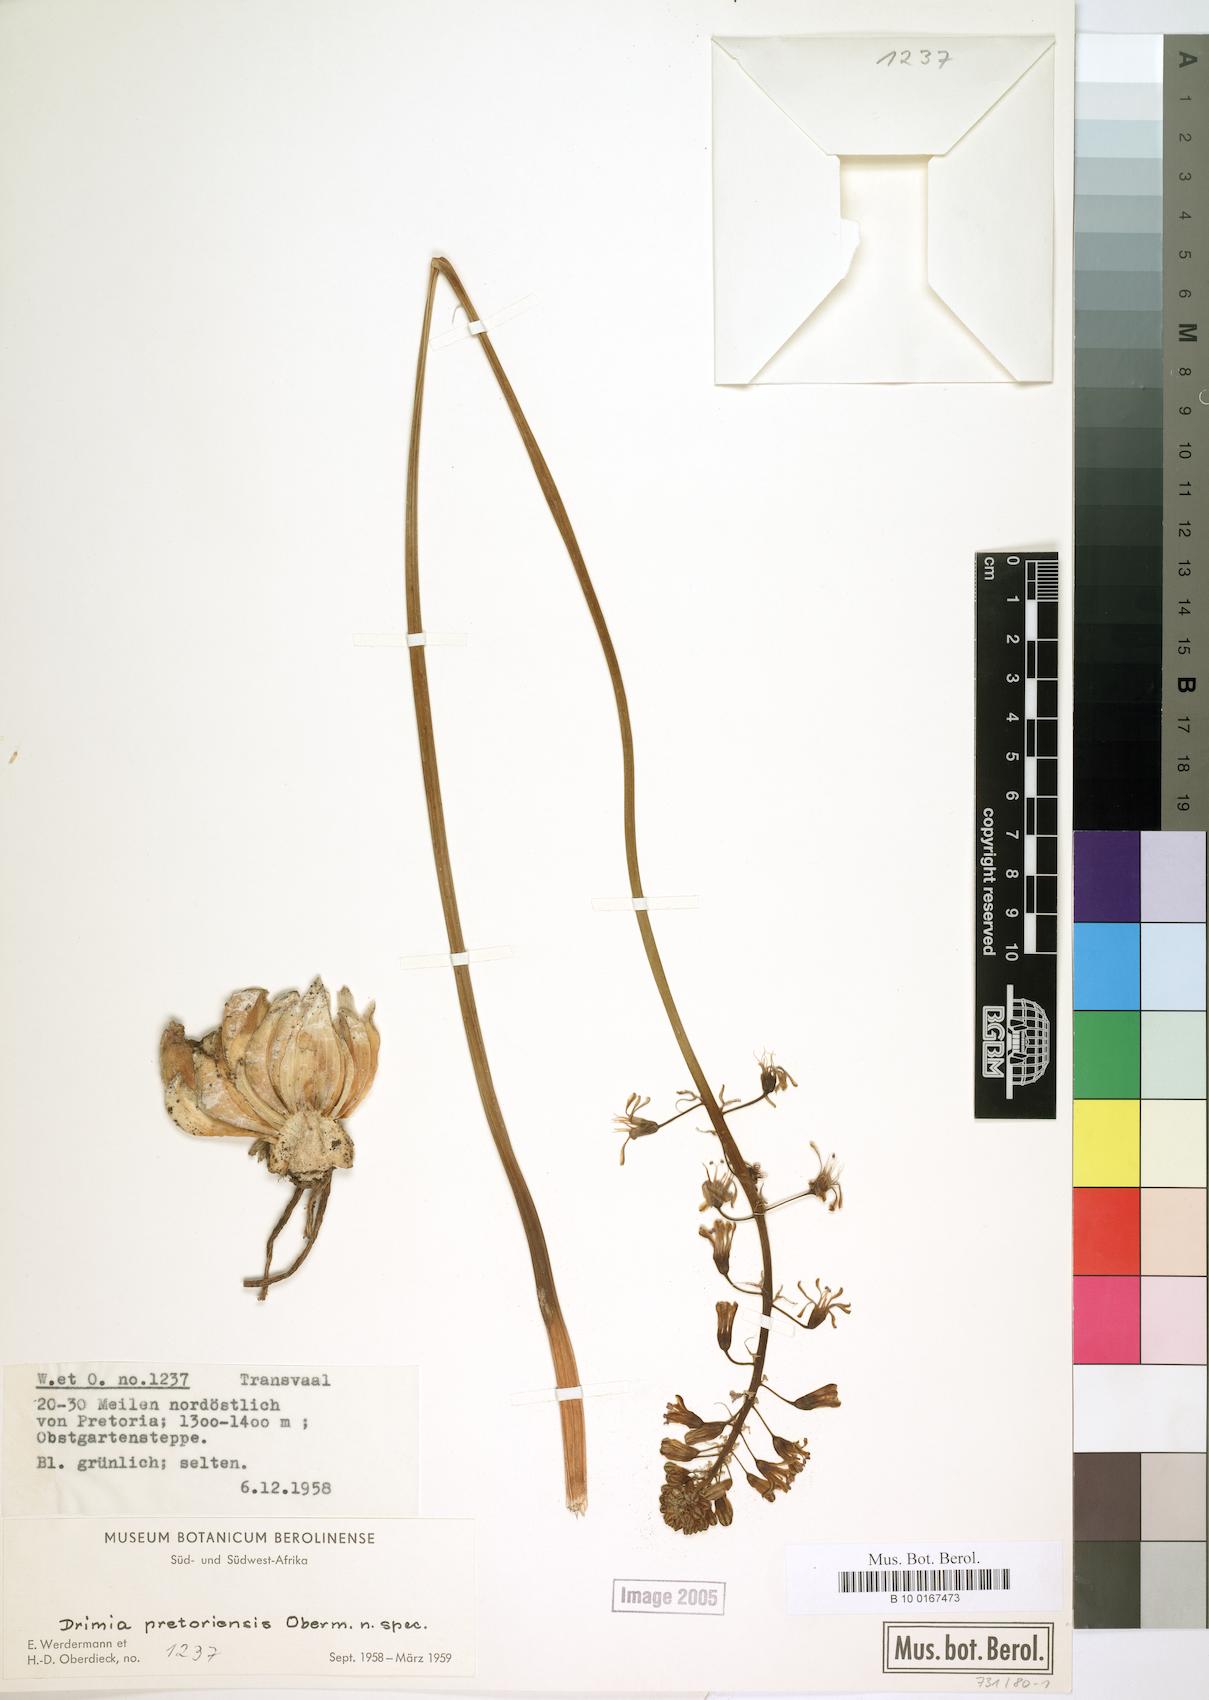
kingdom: Plantae
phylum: Tracheophyta
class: Liliopsida
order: Asparagales
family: Asparagaceae
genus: Drimia
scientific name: Drimia
